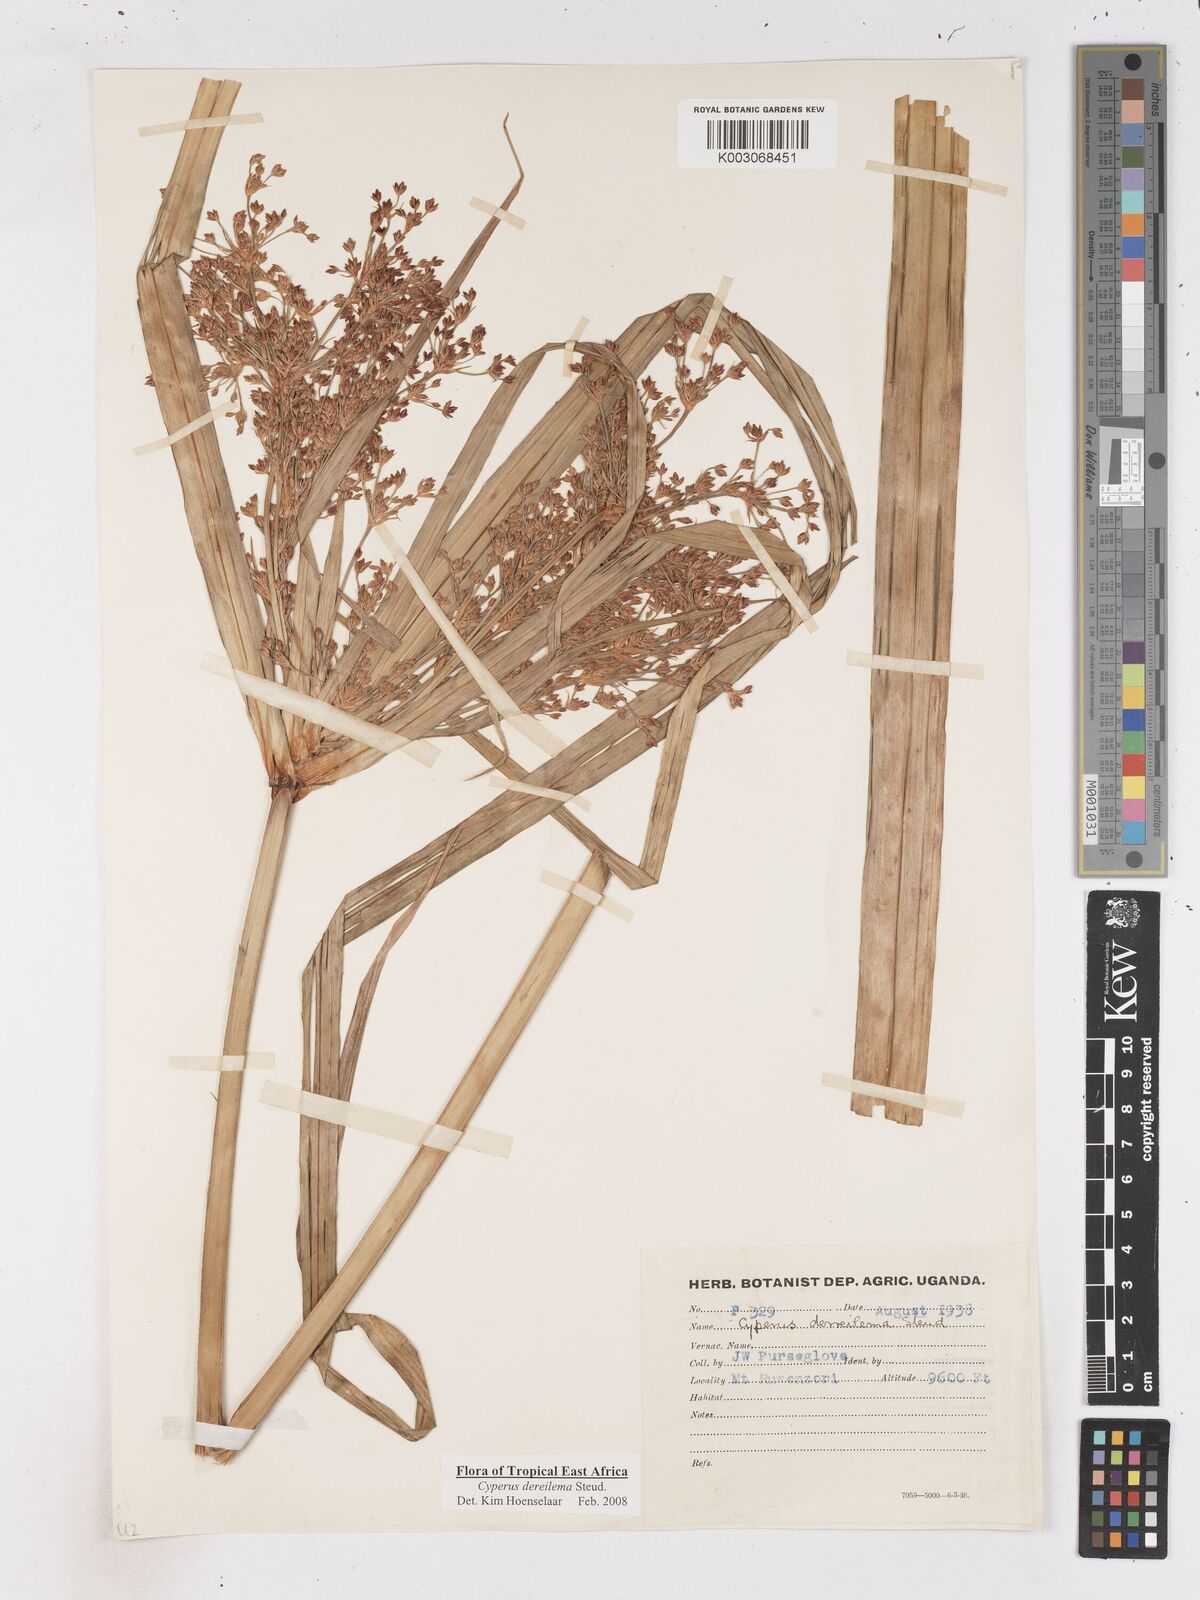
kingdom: Plantae
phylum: Tracheophyta
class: Liliopsida
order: Poales
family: Cyperaceae
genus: Cyperus
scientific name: Cyperus derreilema
